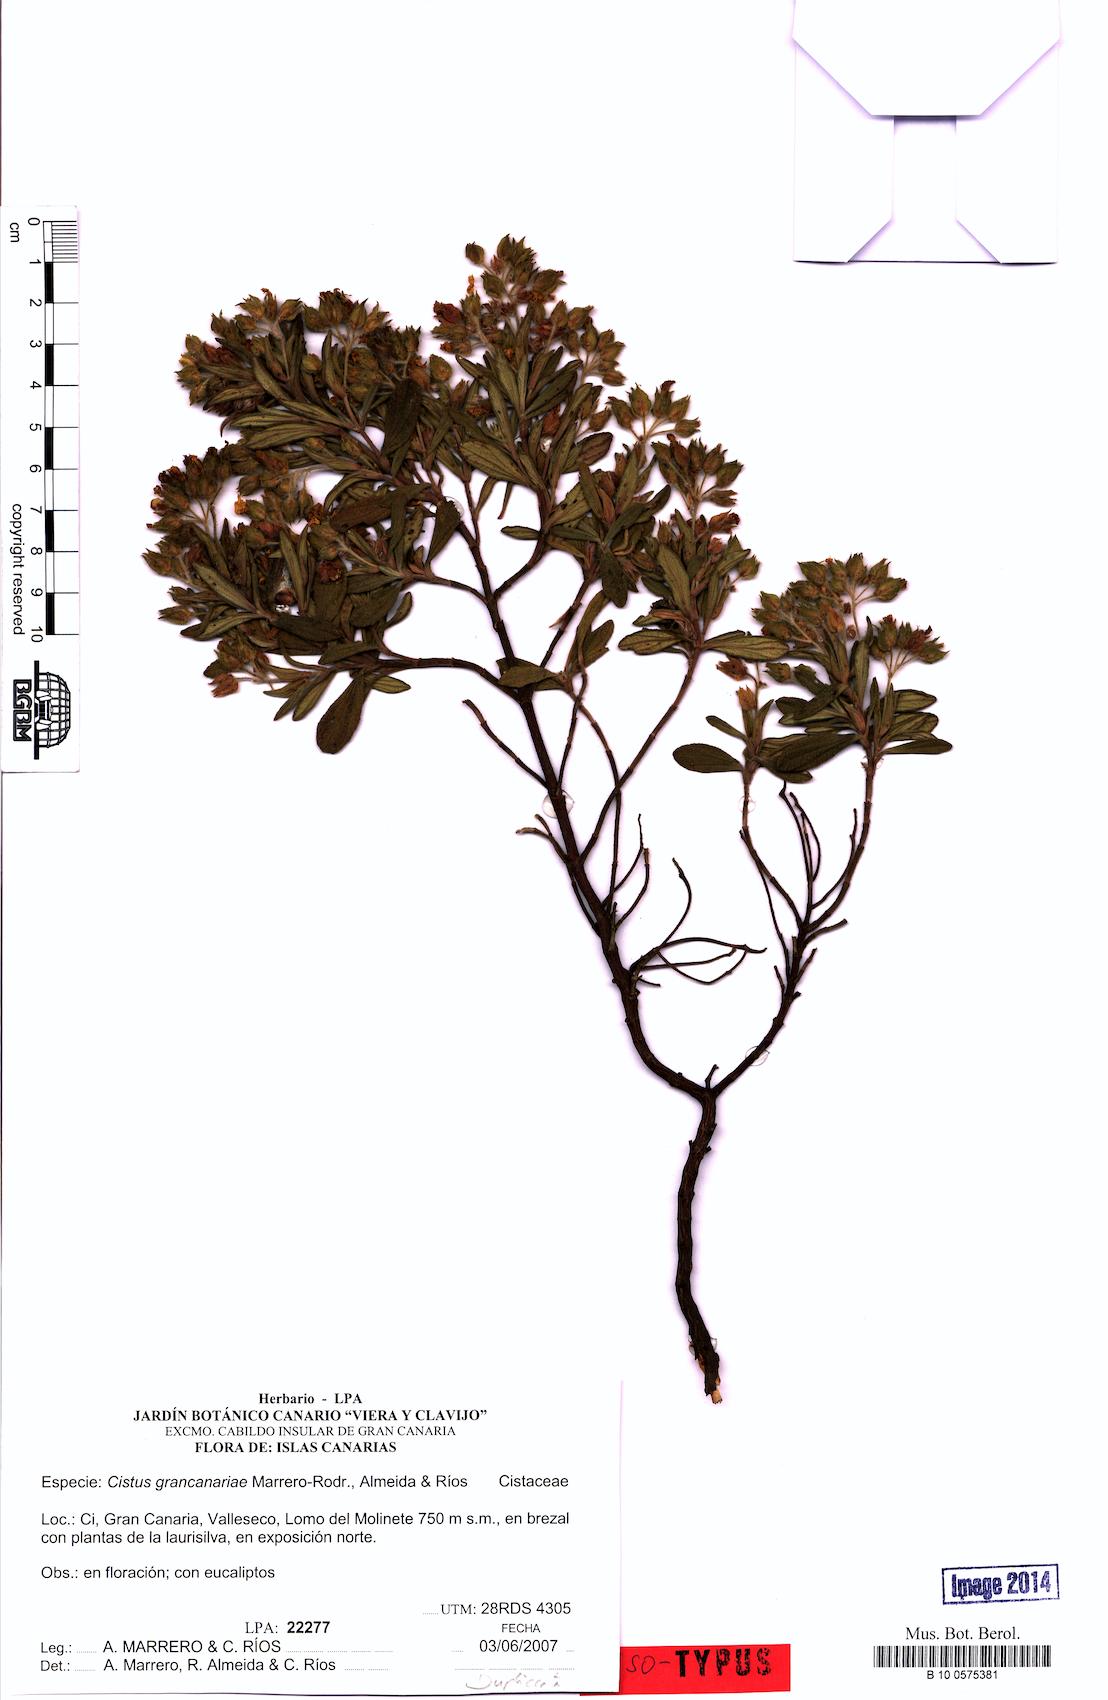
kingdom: Plantae
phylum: Tracheophyta
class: Magnoliopsida
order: Malvales
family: Cistaceae
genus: Cistus
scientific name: Cistus grancanariae
